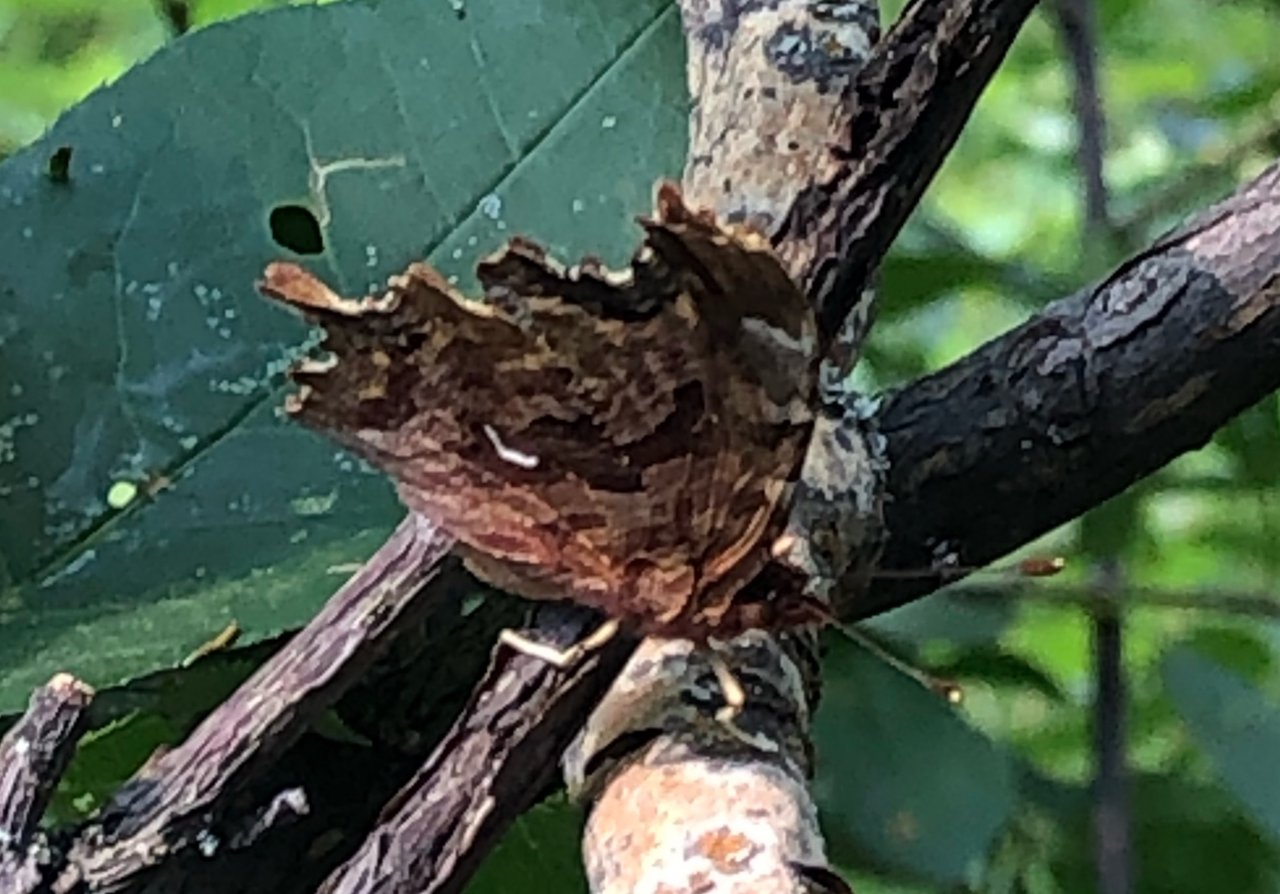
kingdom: Animalia
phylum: Arthropoda
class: Insecta
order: Lepidoptera
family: Nymphalidae
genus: Polygonia
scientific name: Polygonia satyrus
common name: Satyr Comma
